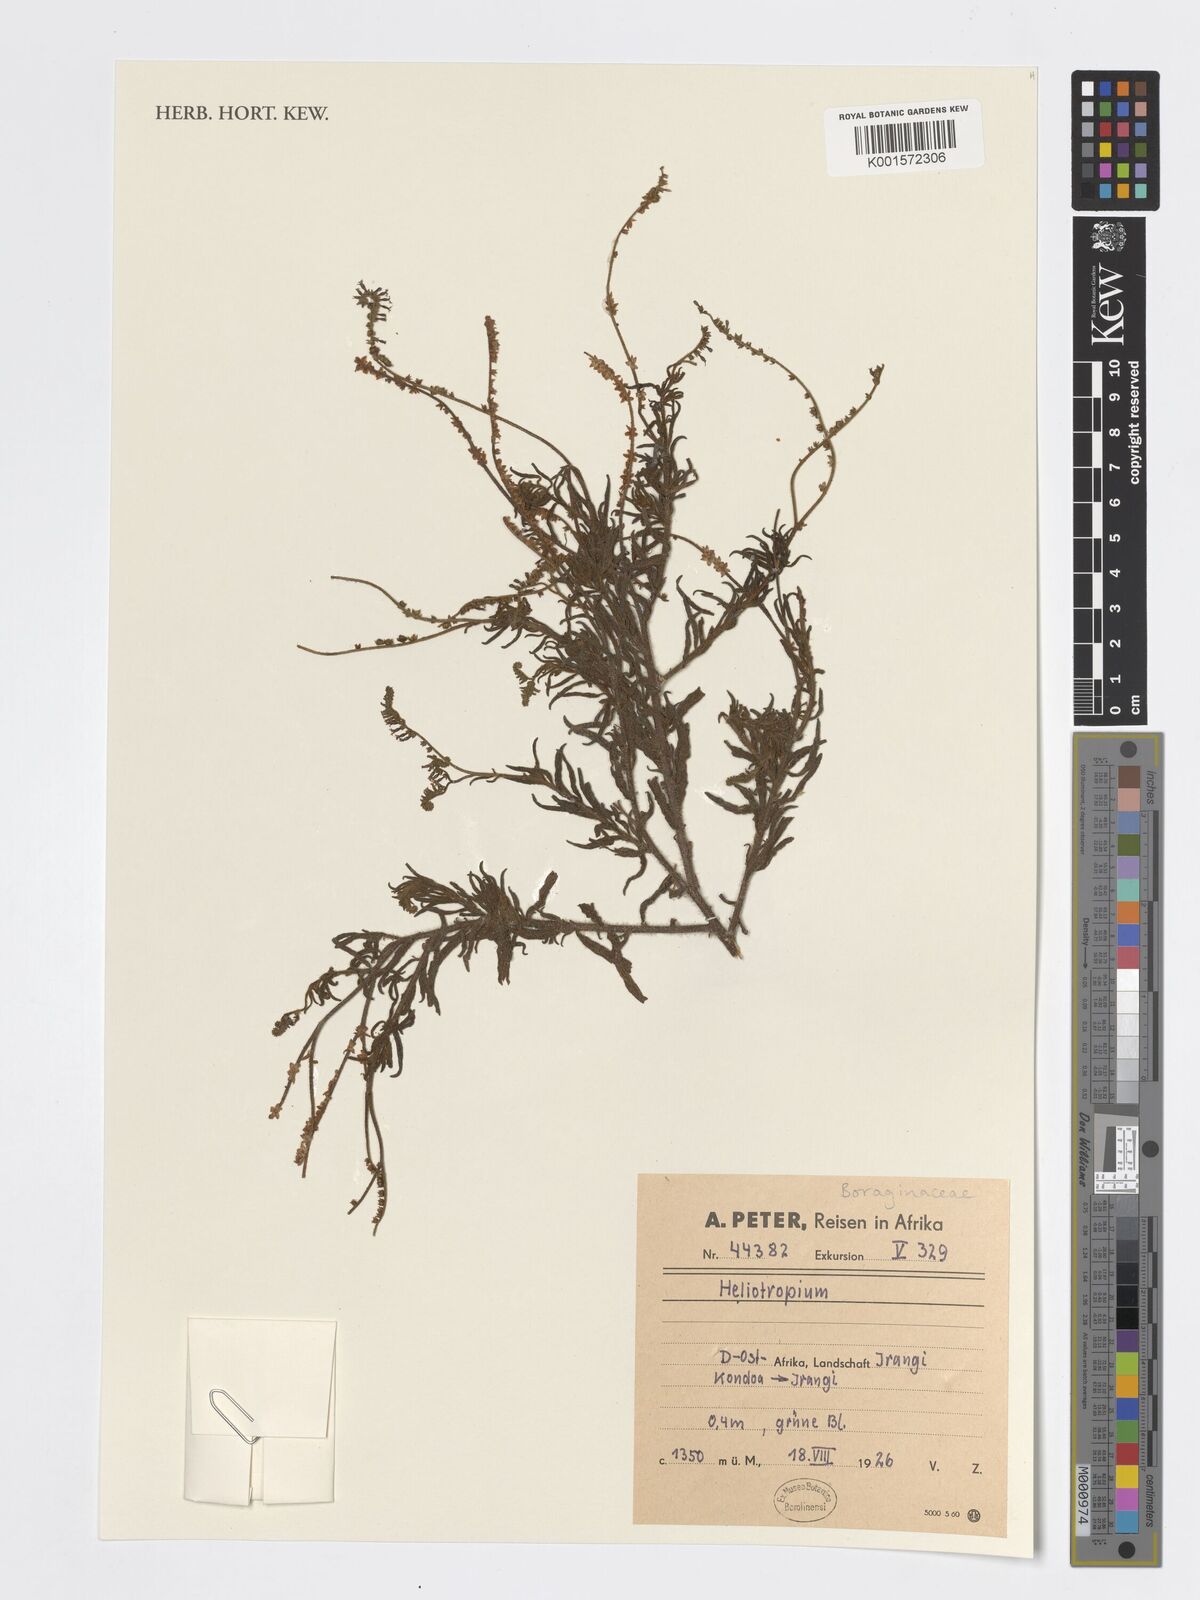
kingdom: Plantae
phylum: Tracheophyta
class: Magnoliopsida
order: Boraginales
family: Heliotropiaceae
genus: Heliotropium
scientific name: Heliotropium
